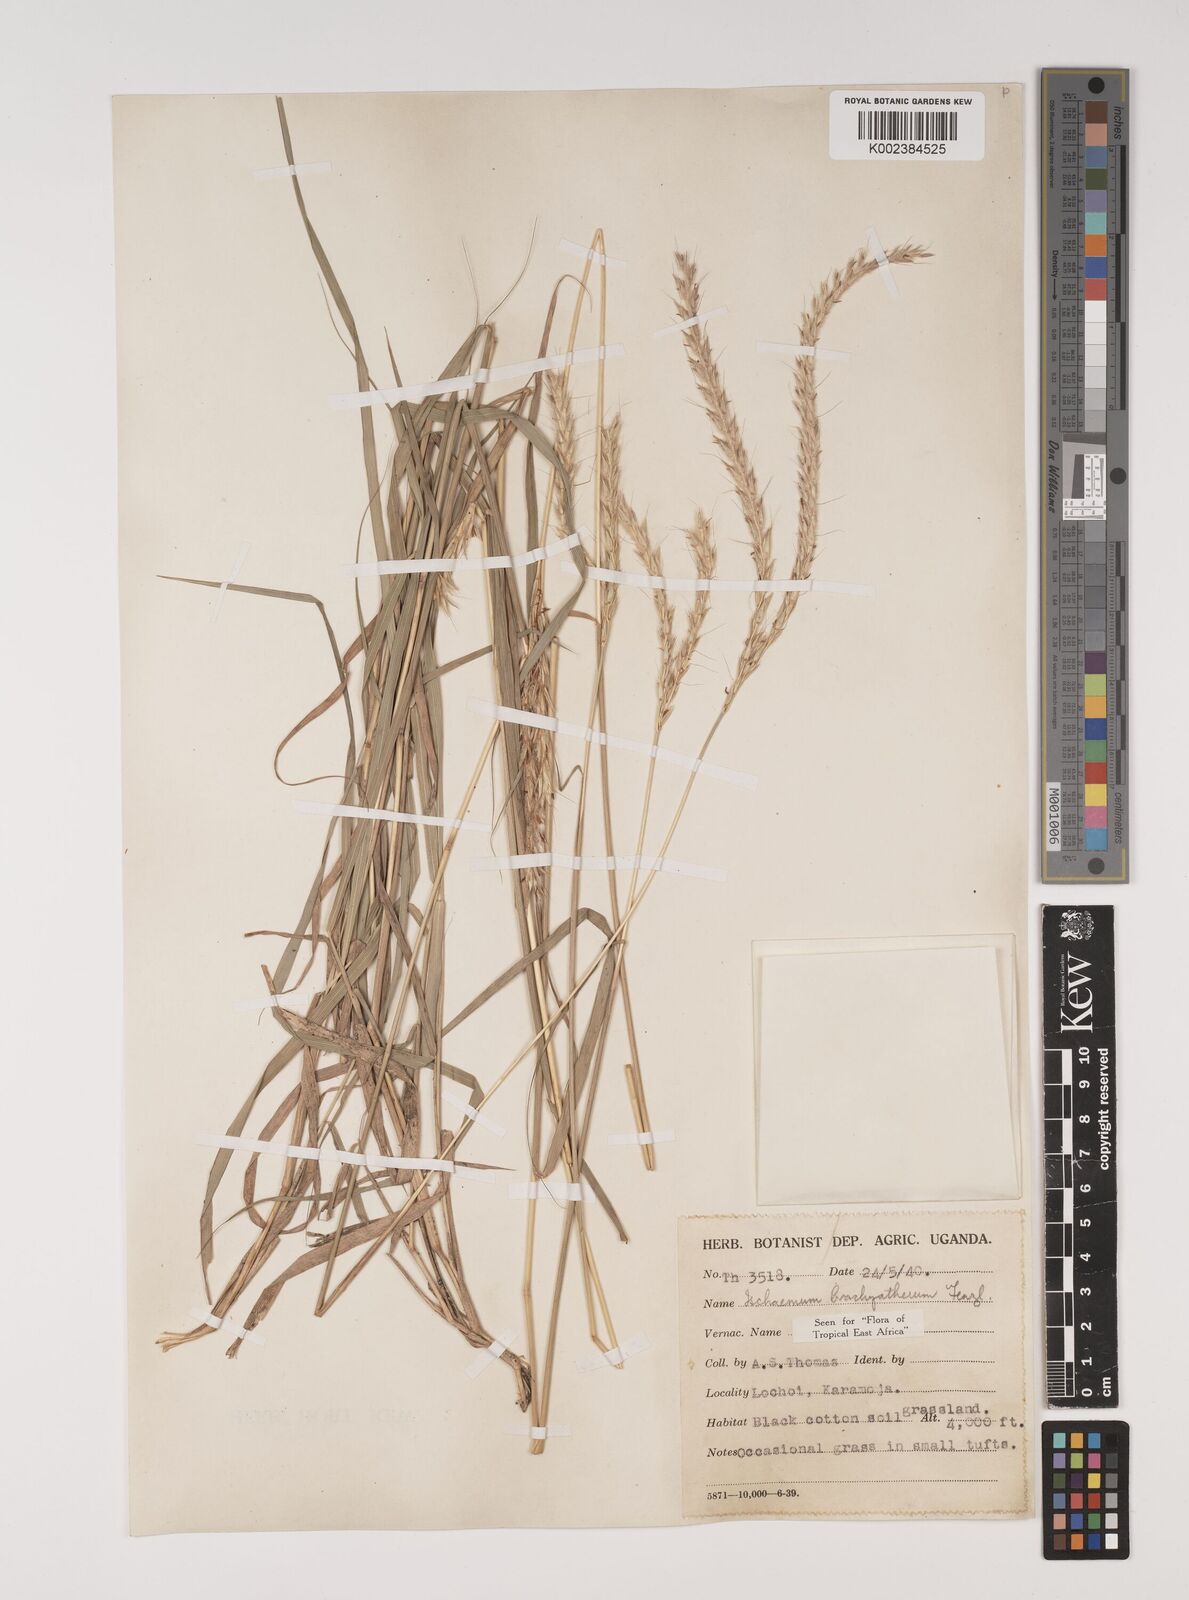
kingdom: Plantae
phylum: Tracheophyta
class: Liliopsida
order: Poales
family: Poaceae
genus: Ischaemum
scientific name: Ischaemum afrum
